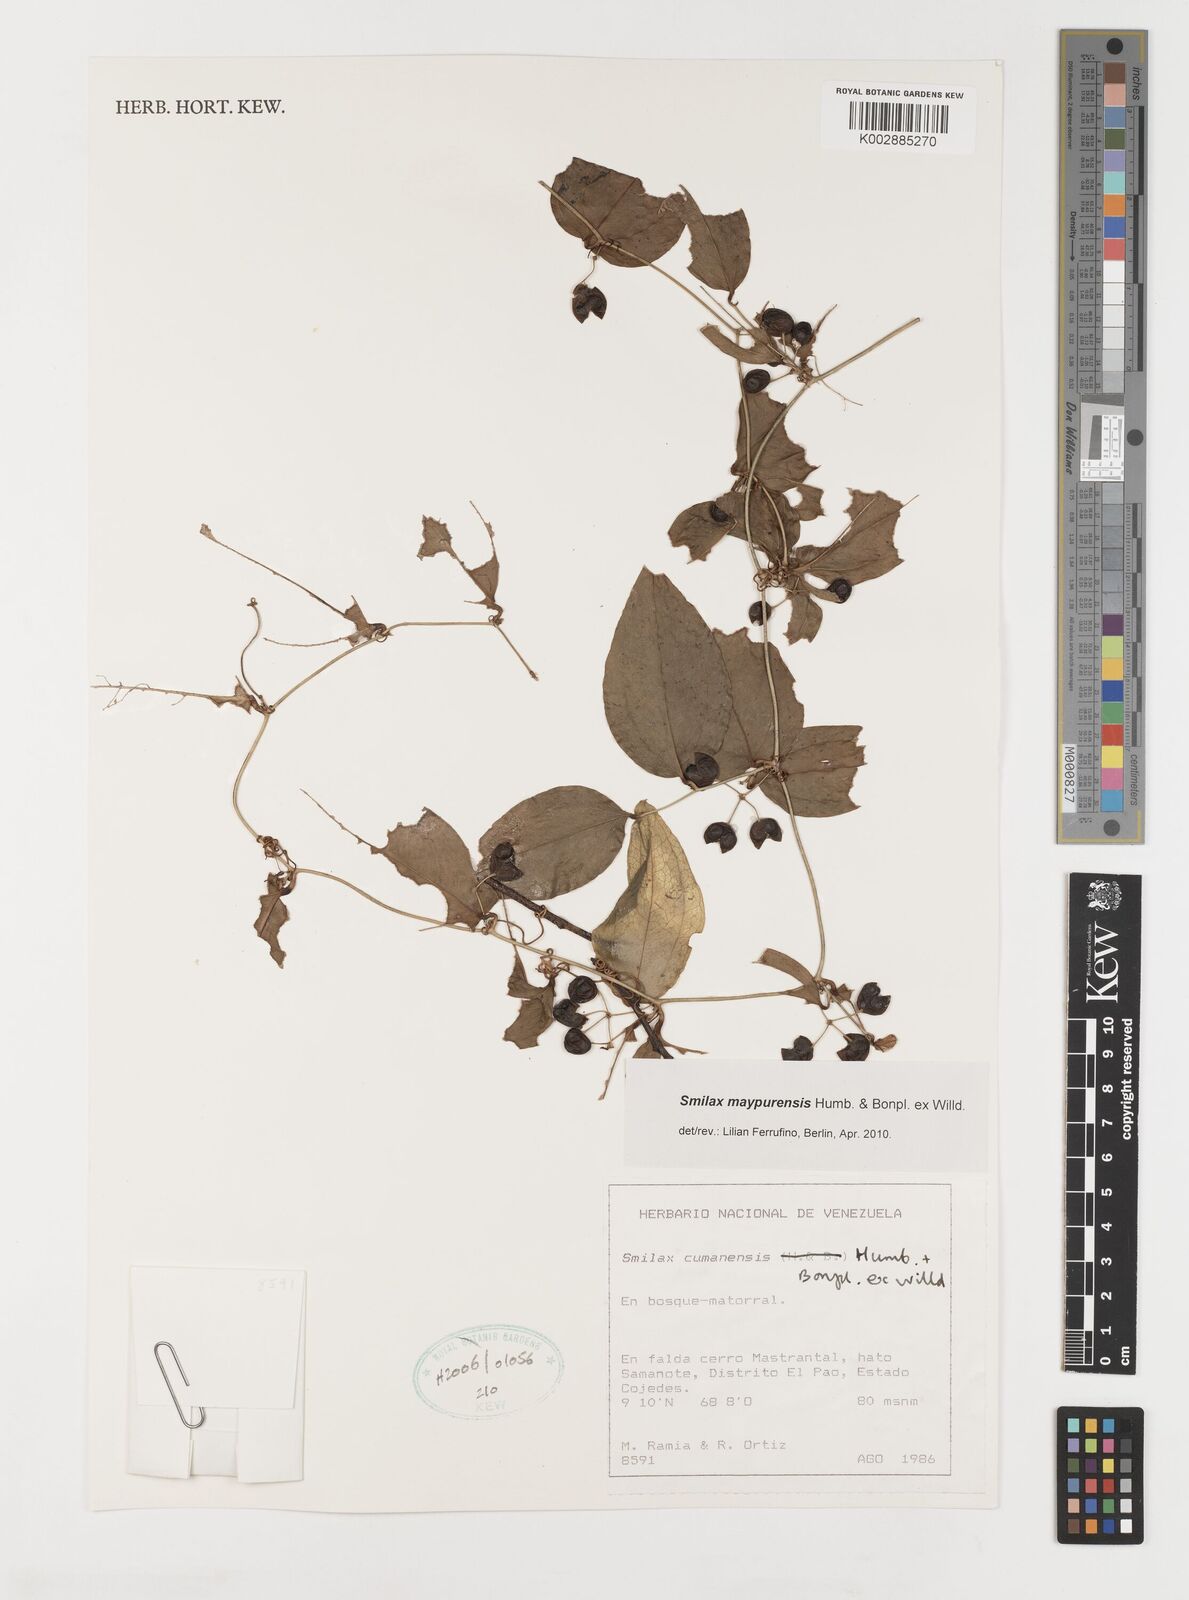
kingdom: Plantae
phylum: Tracheophyta
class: Liliopsida
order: Liliales
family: Smilacaceae
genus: Smilax
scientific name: Smilax maypurensis
